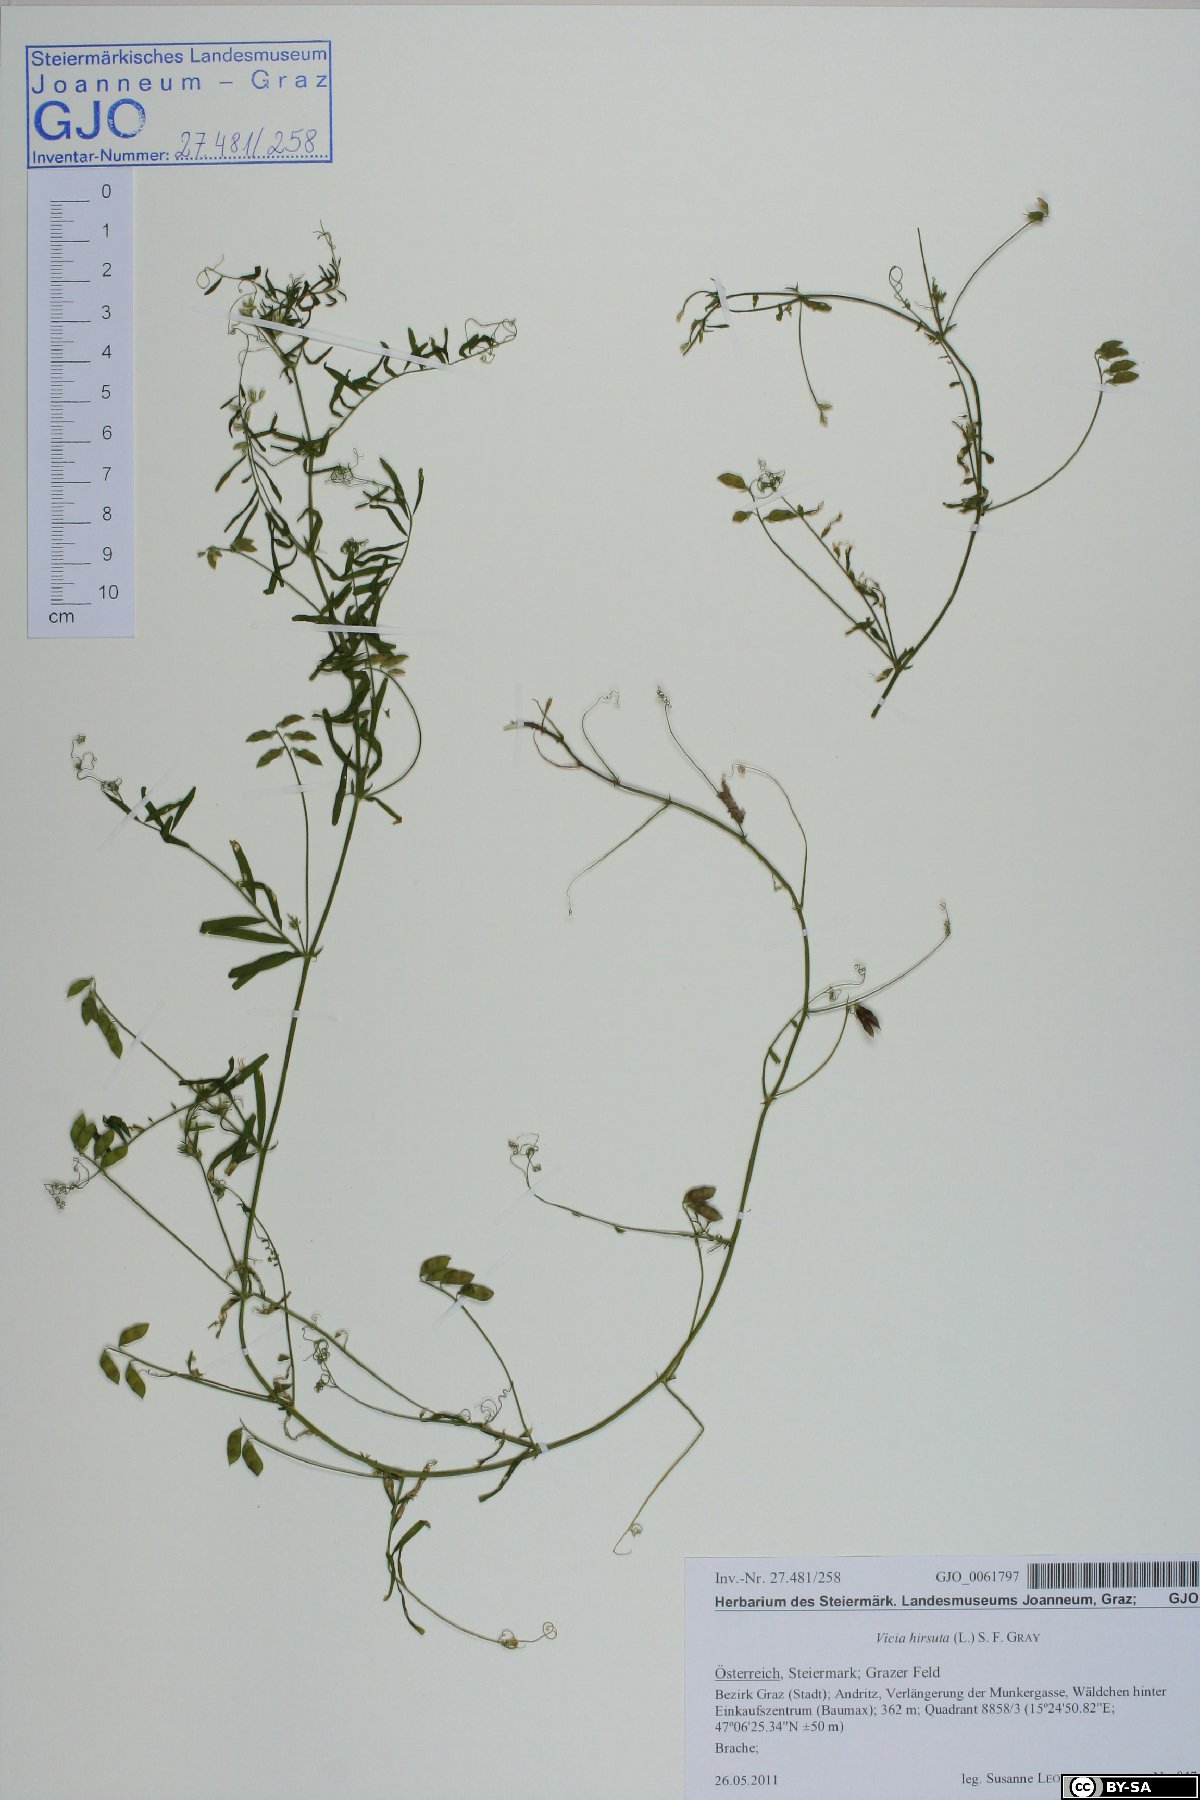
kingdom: Plantae
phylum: Tracheophyta
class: Magnoliopsida
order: Fabales
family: Fabaceae
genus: Vicia
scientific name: Vicia hirsuta
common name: Tiny vetch
